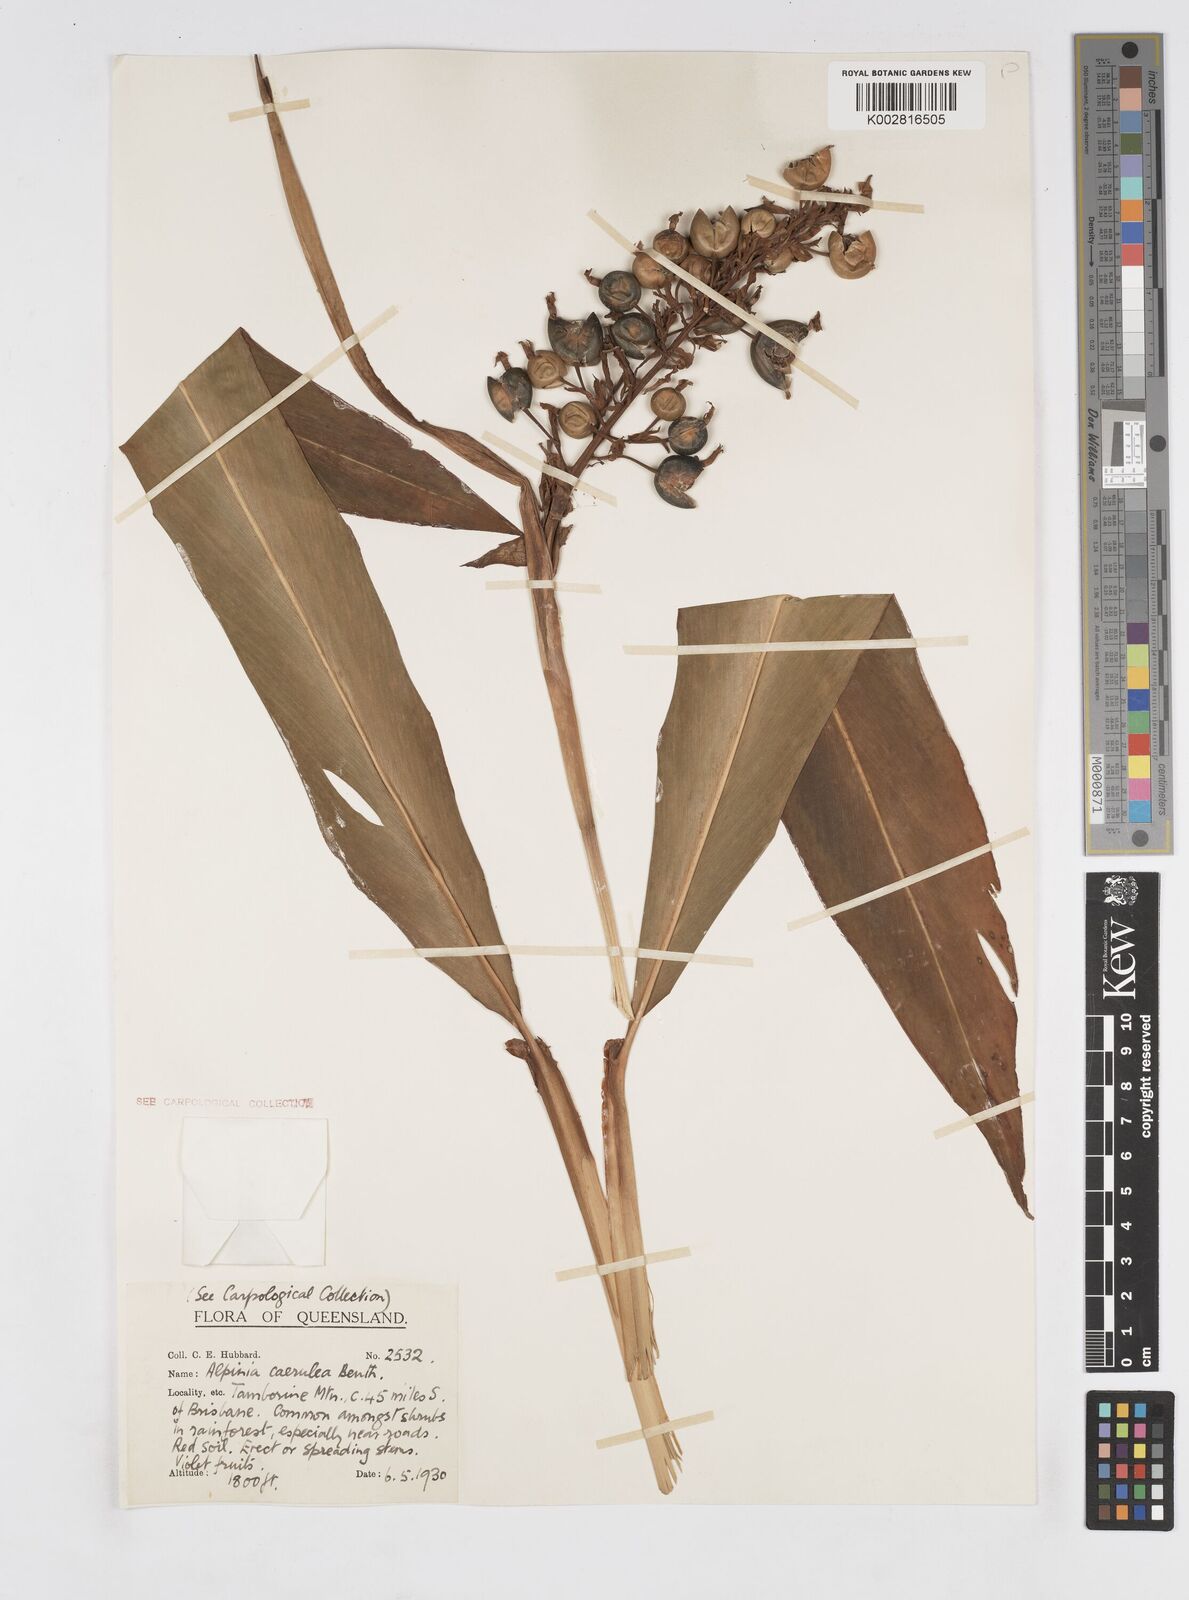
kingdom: Plantae
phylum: Tracheophyta
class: Liliopsida
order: Zingiberales
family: Zingiberaceae
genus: Alpinia
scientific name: Alpinia
